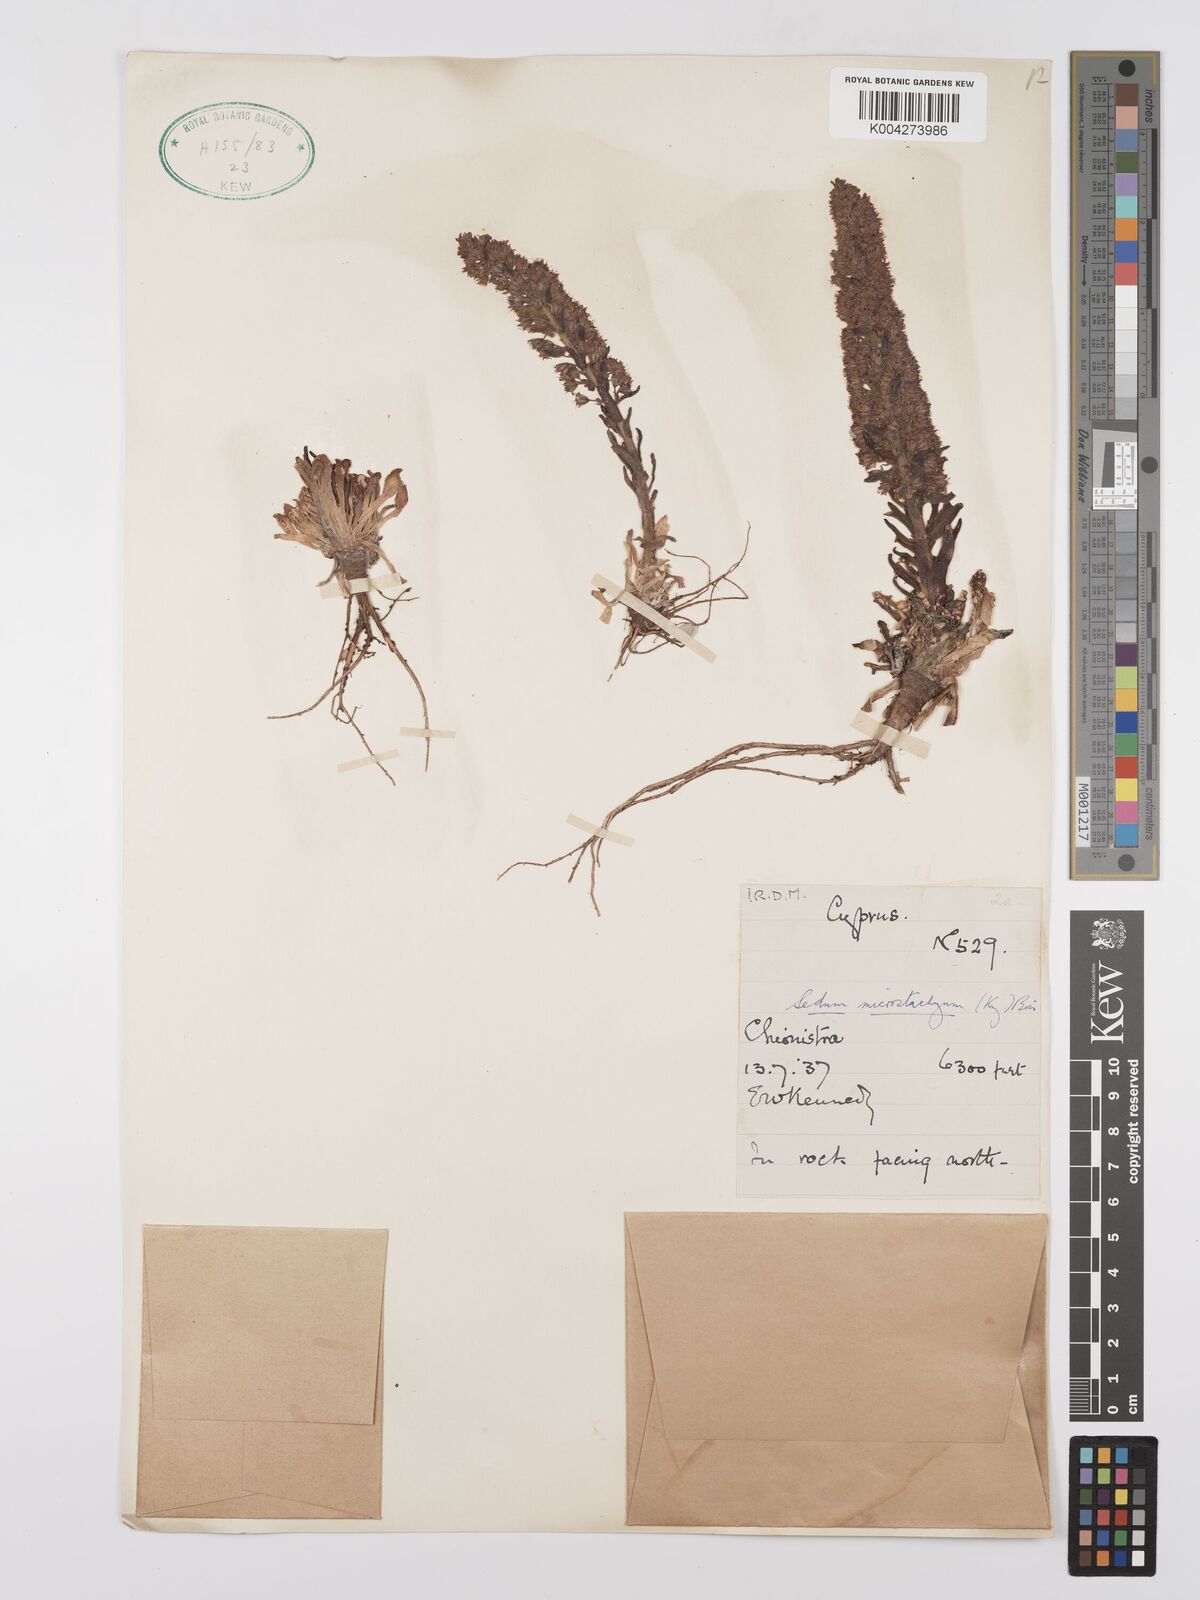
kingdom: Plantae
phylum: Tracheophyta
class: Magnoliopsida
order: Saxifragales
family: Crassulaceae
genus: Sedum
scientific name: Sedum microstachyum
